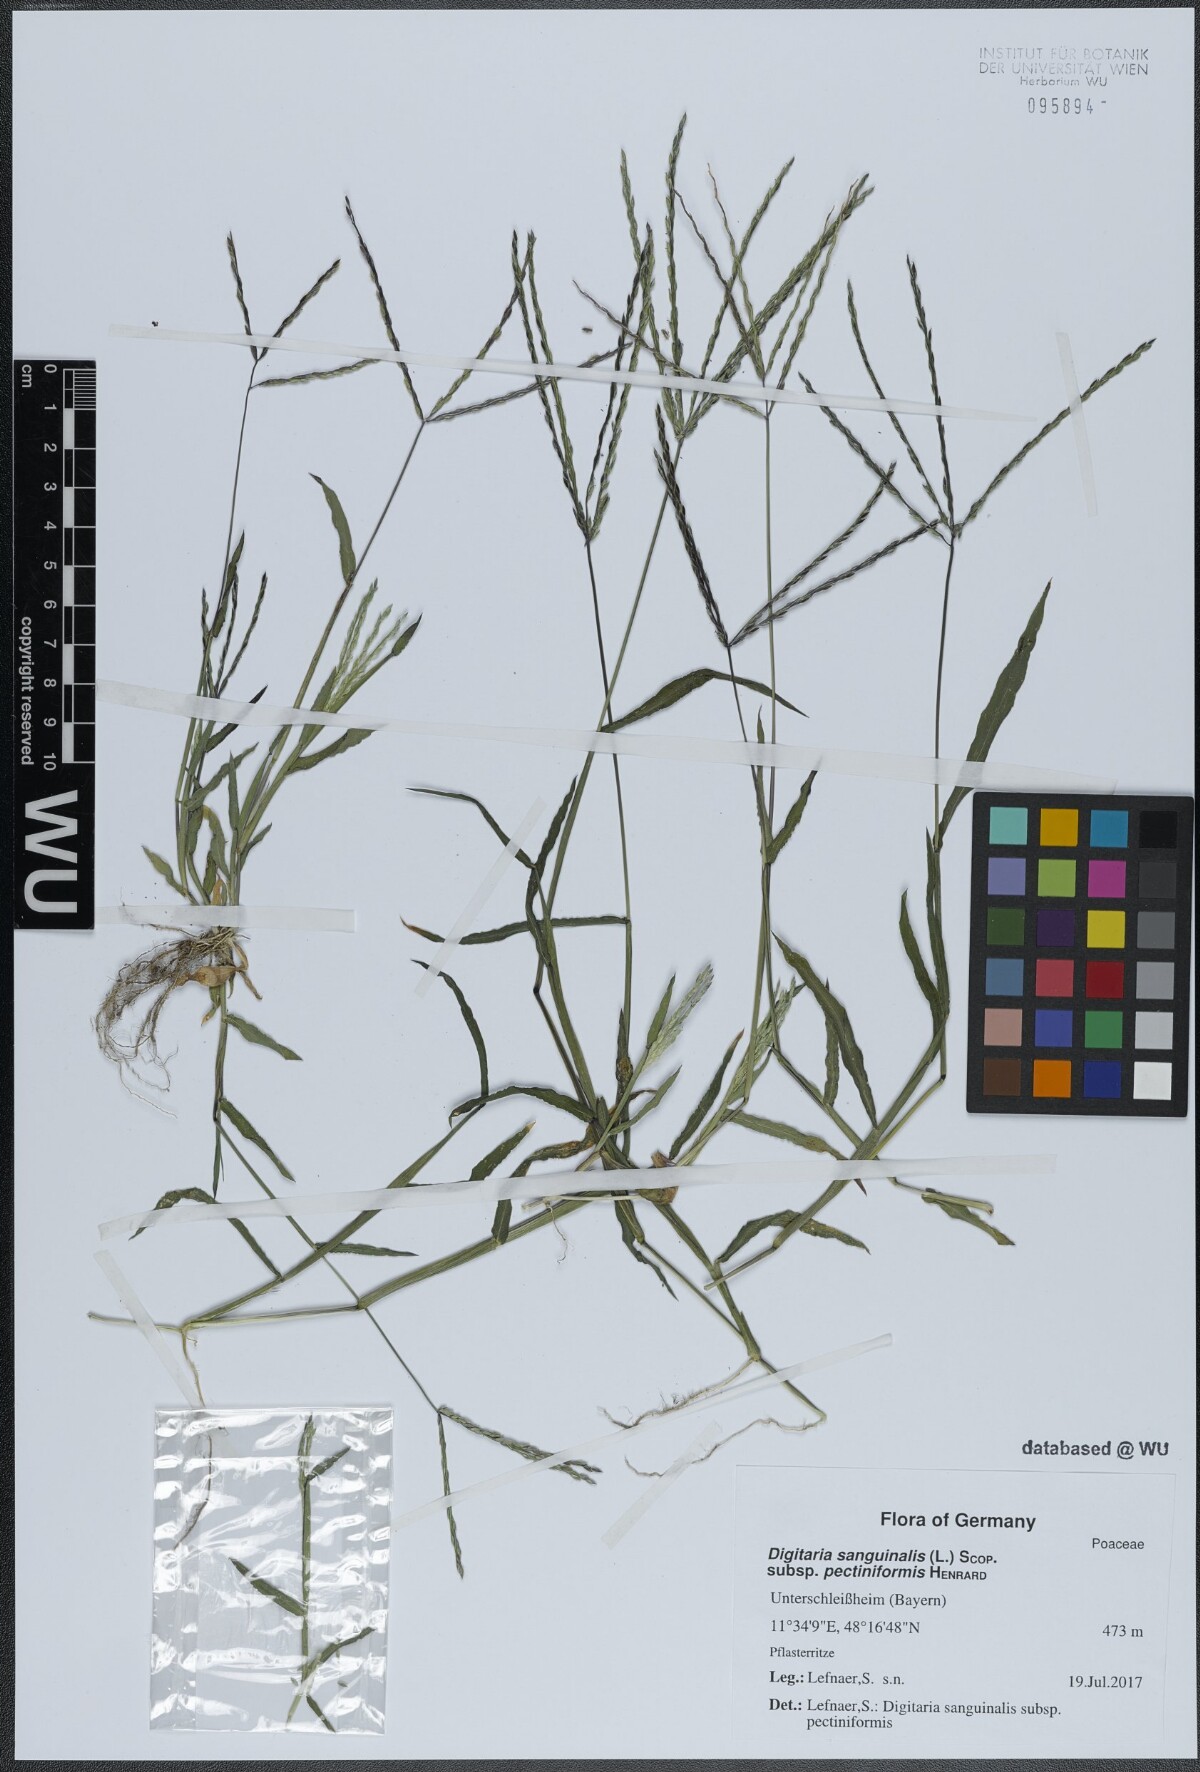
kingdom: Plantae
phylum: Tracheophyta
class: Liliopsida
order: Poales
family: Poaceae
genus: Digitaria
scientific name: Digitaria sanguinalis
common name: Hairy crabgrass
